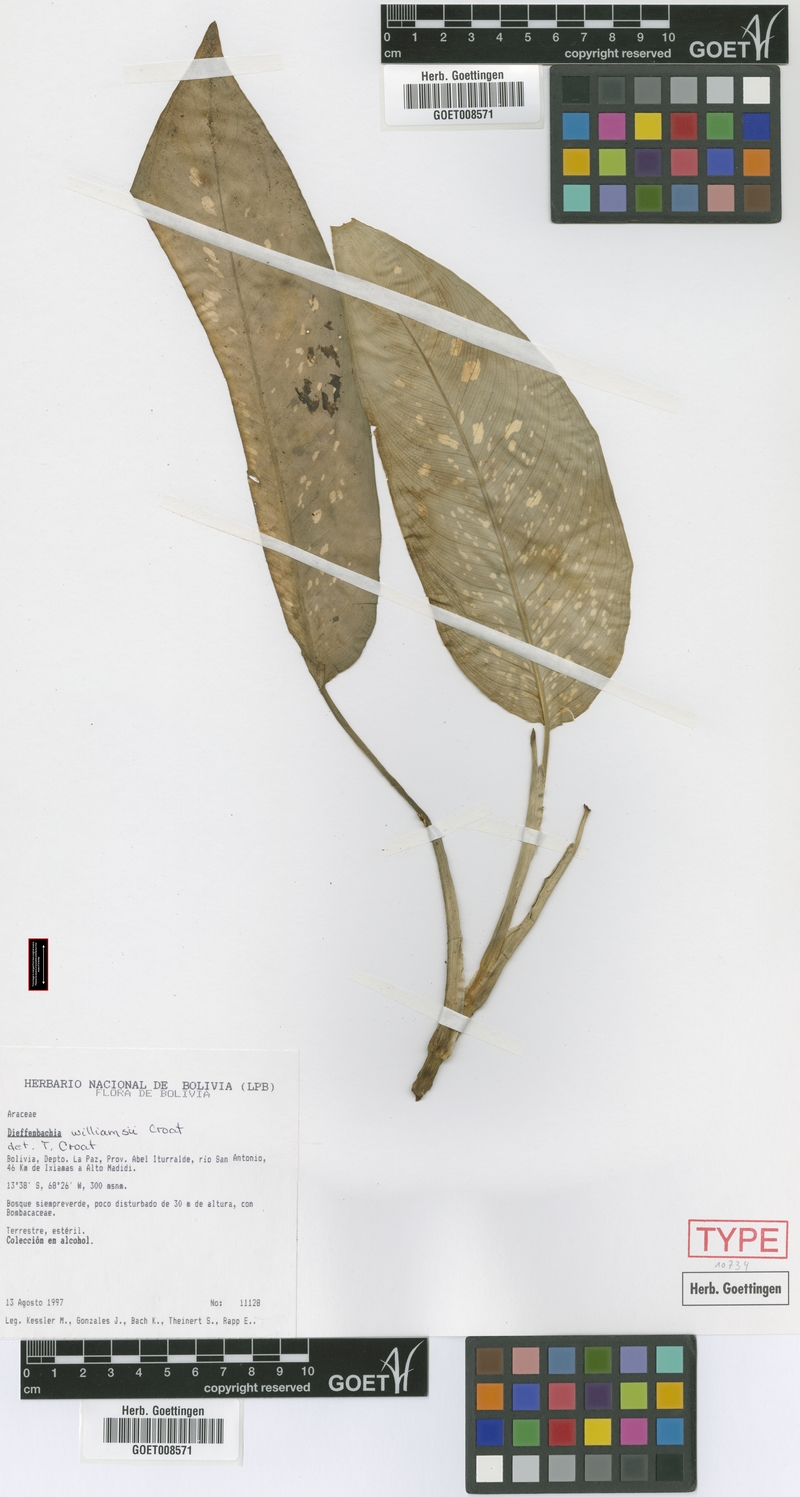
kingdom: Plantae
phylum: Tracheophyta
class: Liliopsida
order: Alismatales
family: Araceae
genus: Dieffenbachia
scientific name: Dieffenbachia williamsii
